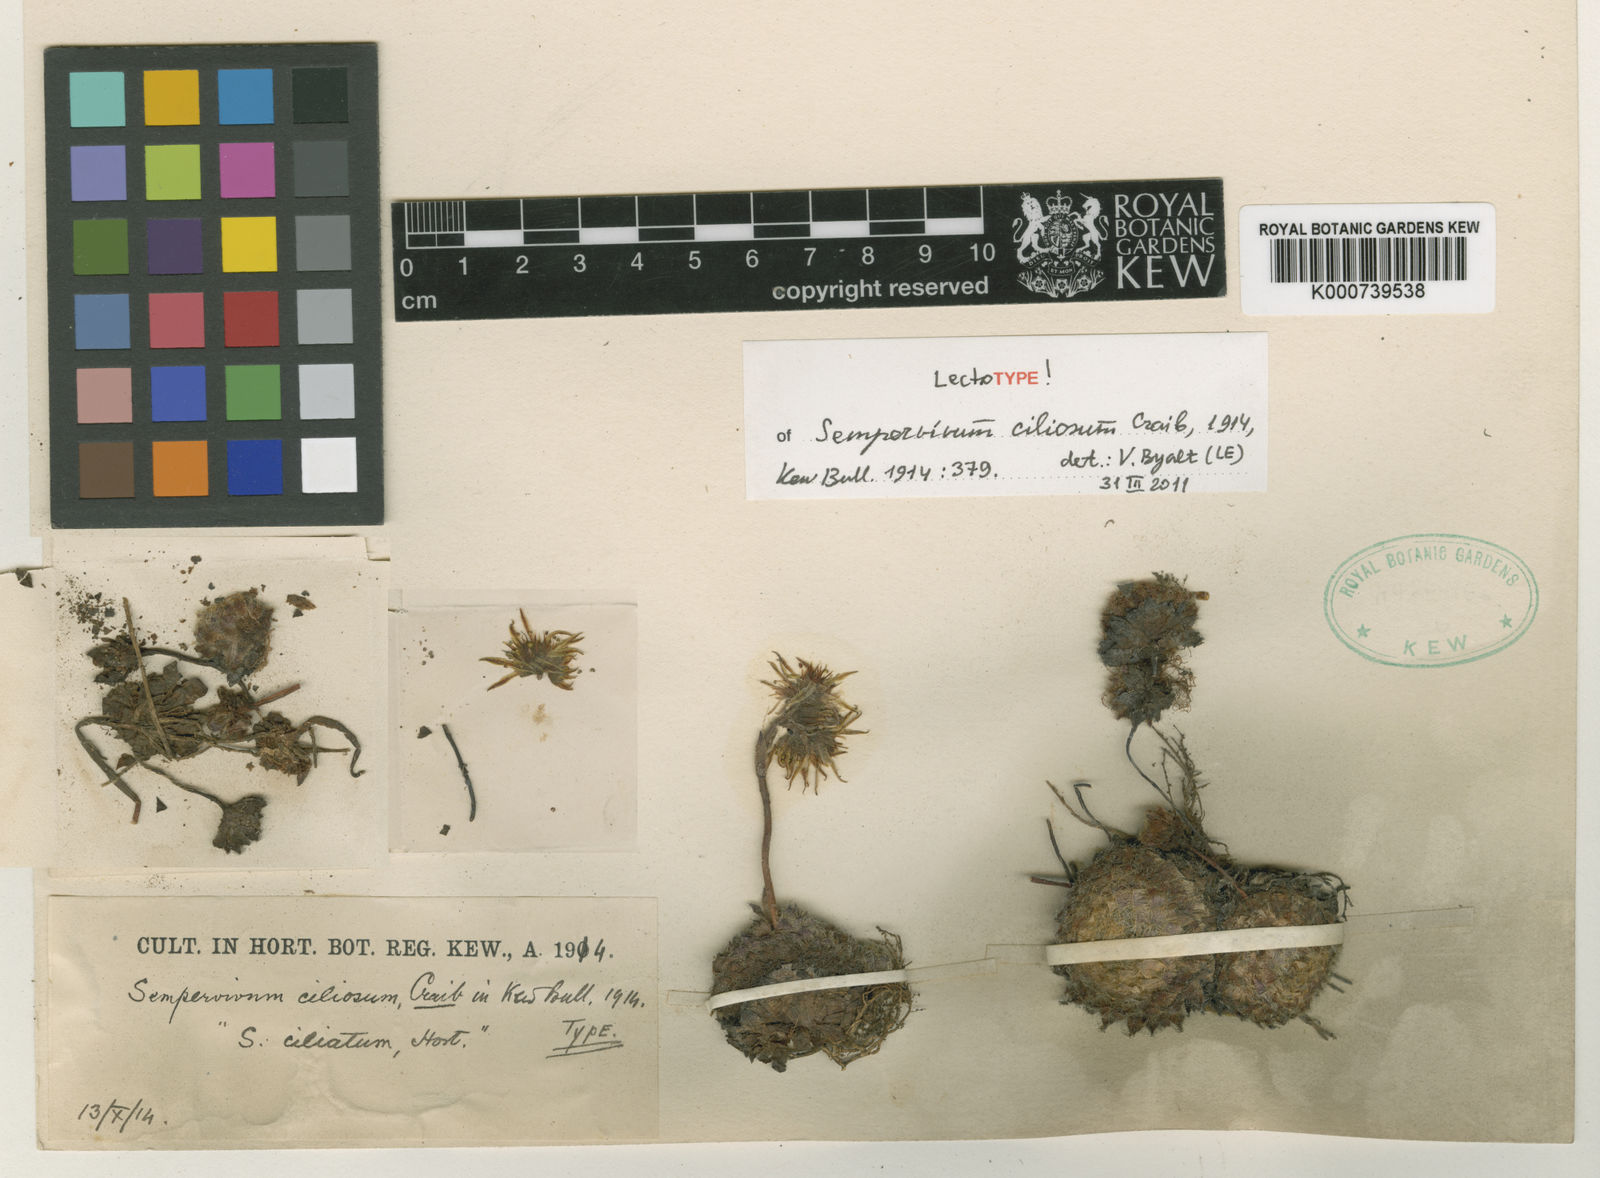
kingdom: Plantae
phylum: Tracheophyta
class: Magnoliopsida
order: Saxifragales
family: Crassulaceae
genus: Sempervivum
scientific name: Sempervivum ciliosum
